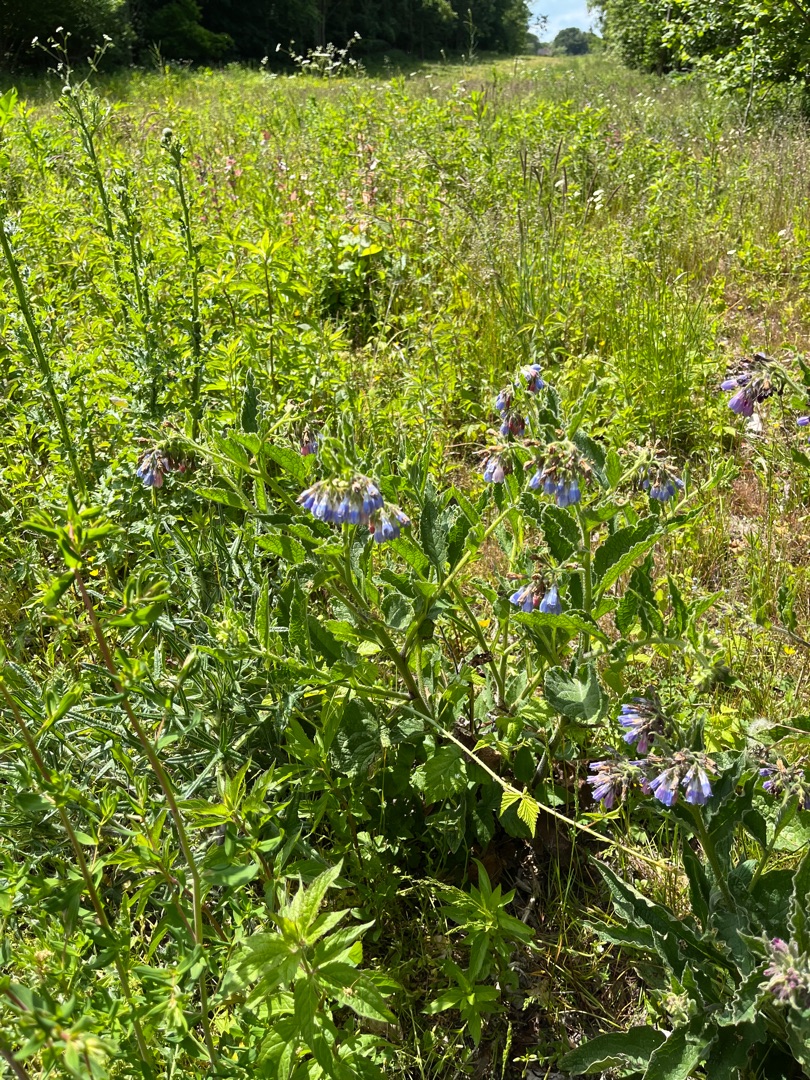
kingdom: Plantae
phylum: Tracheophyta
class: Magnoliopsida
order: Boraginales
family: Boraginaceae
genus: Symphytum
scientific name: Symphytum uplandicum
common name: Foder-kulsukker
